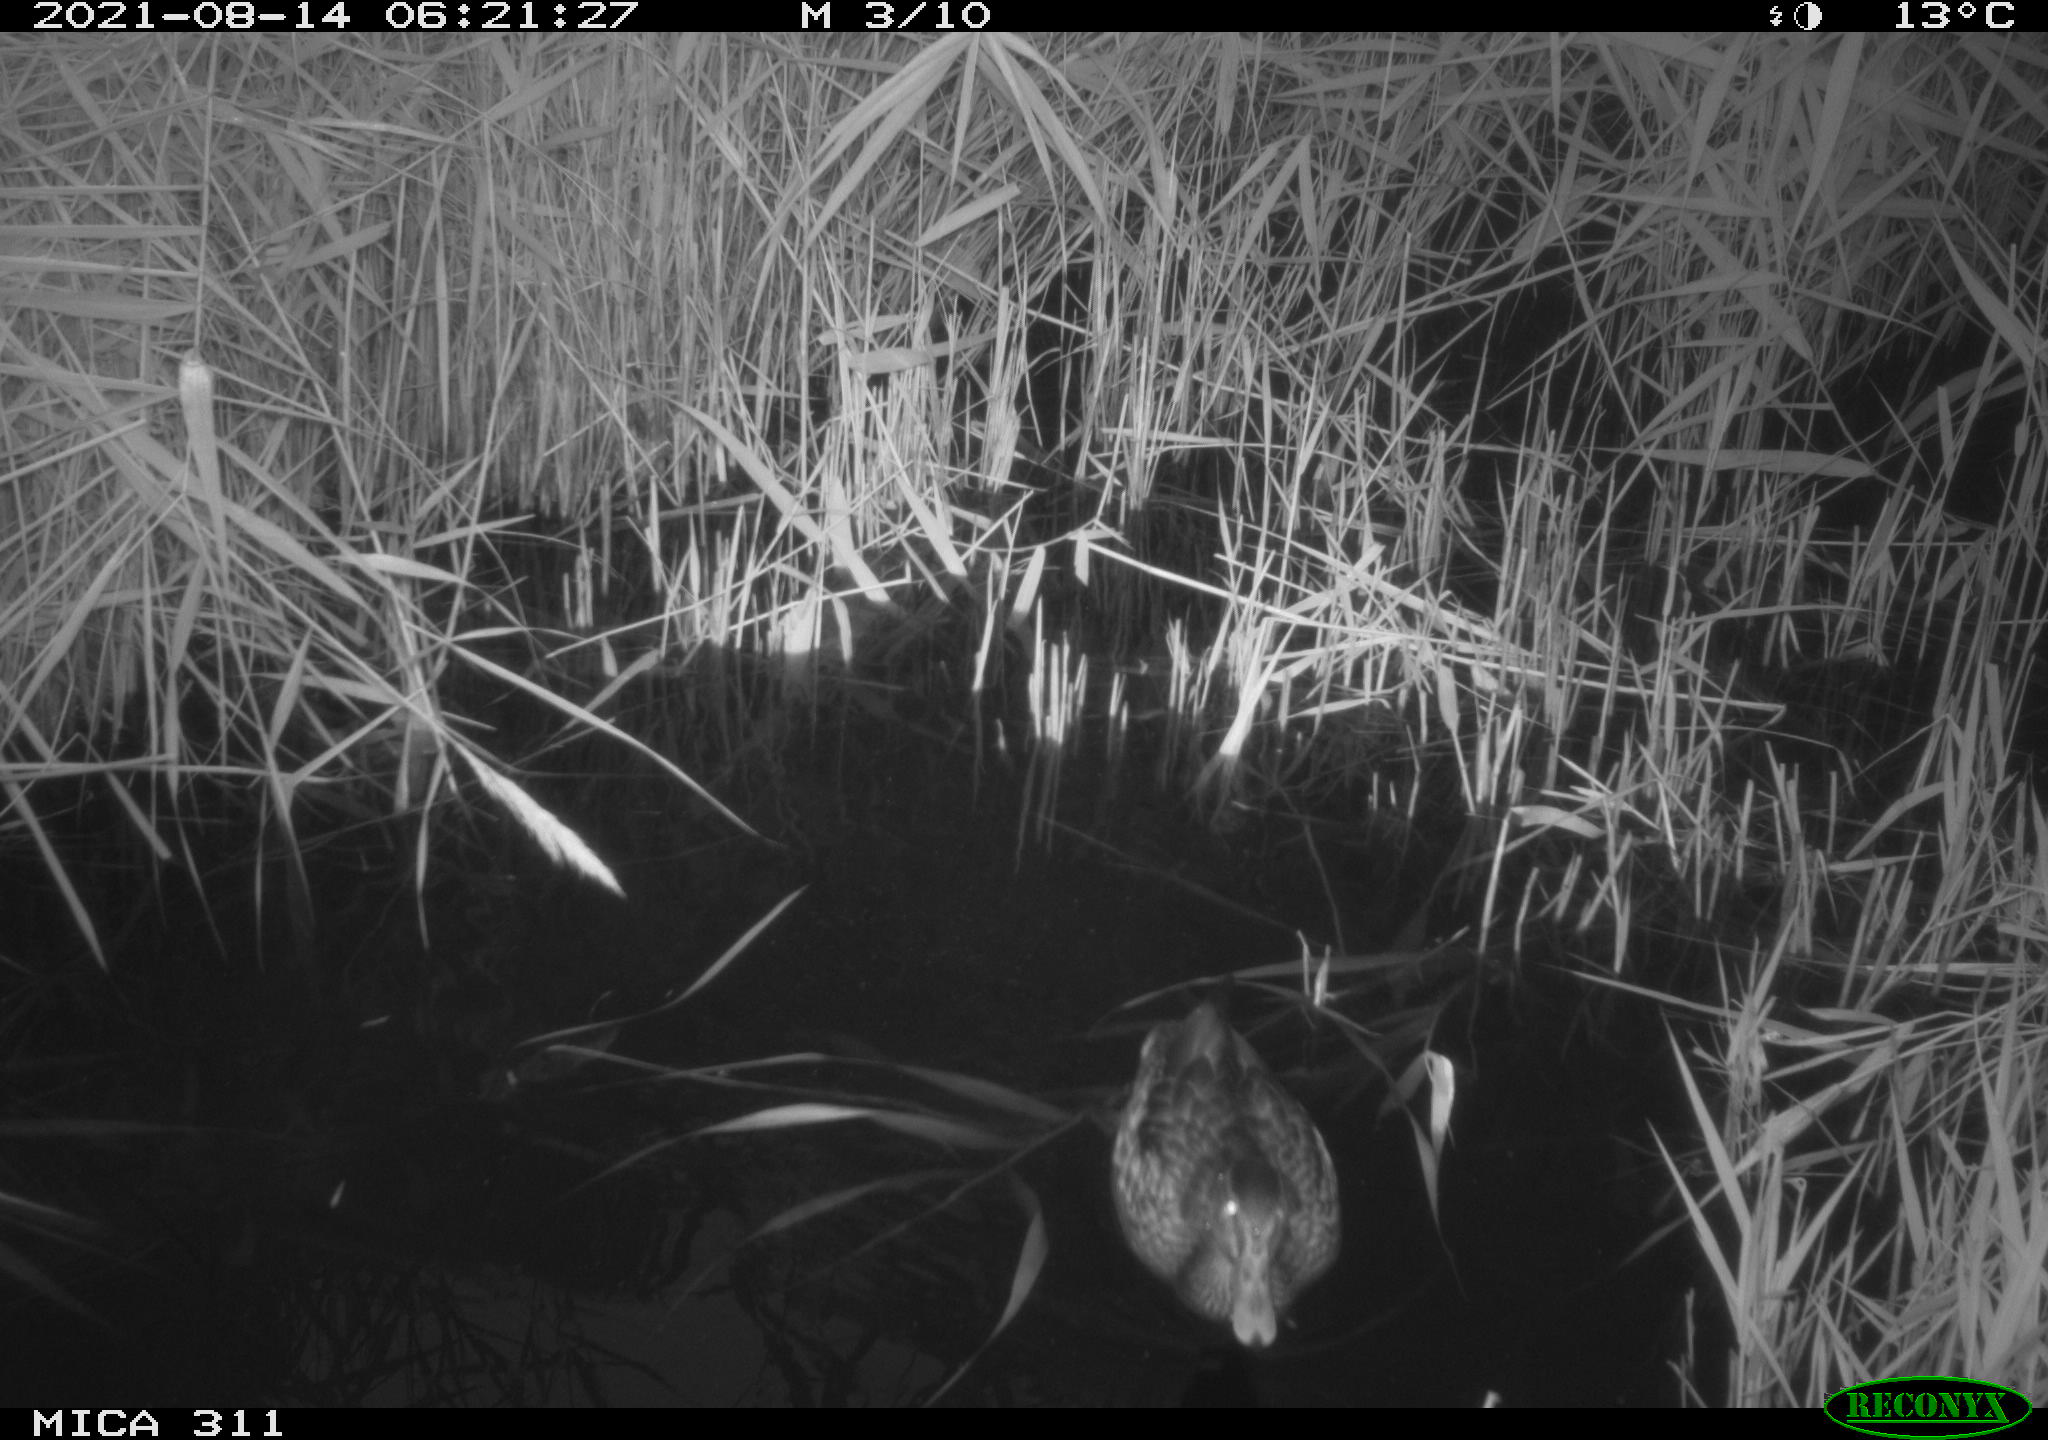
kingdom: Animalia
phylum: Chordata
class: Aves
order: Anseriformes
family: Anatidae
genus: Anas
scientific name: Anas
